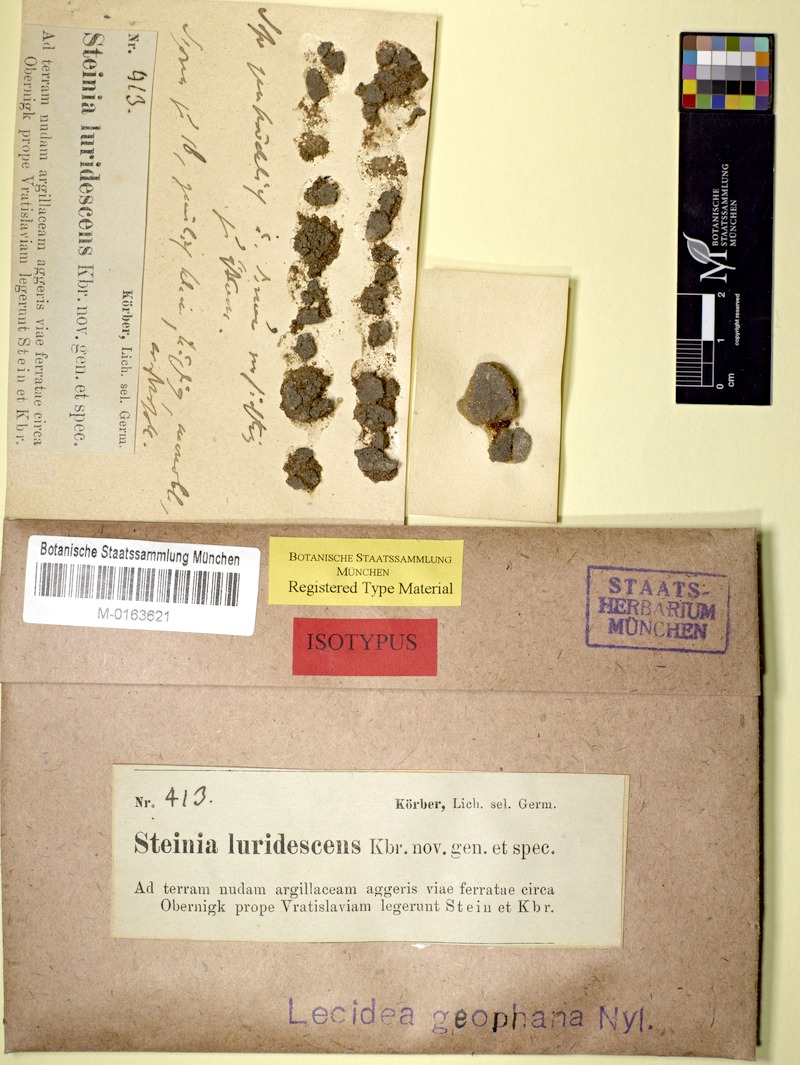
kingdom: Fungi
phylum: Ascomycota
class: Lecanoromycetes
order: Lecanorales
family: Aphanopsidaceae
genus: Steinia
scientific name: Steinia geophana
